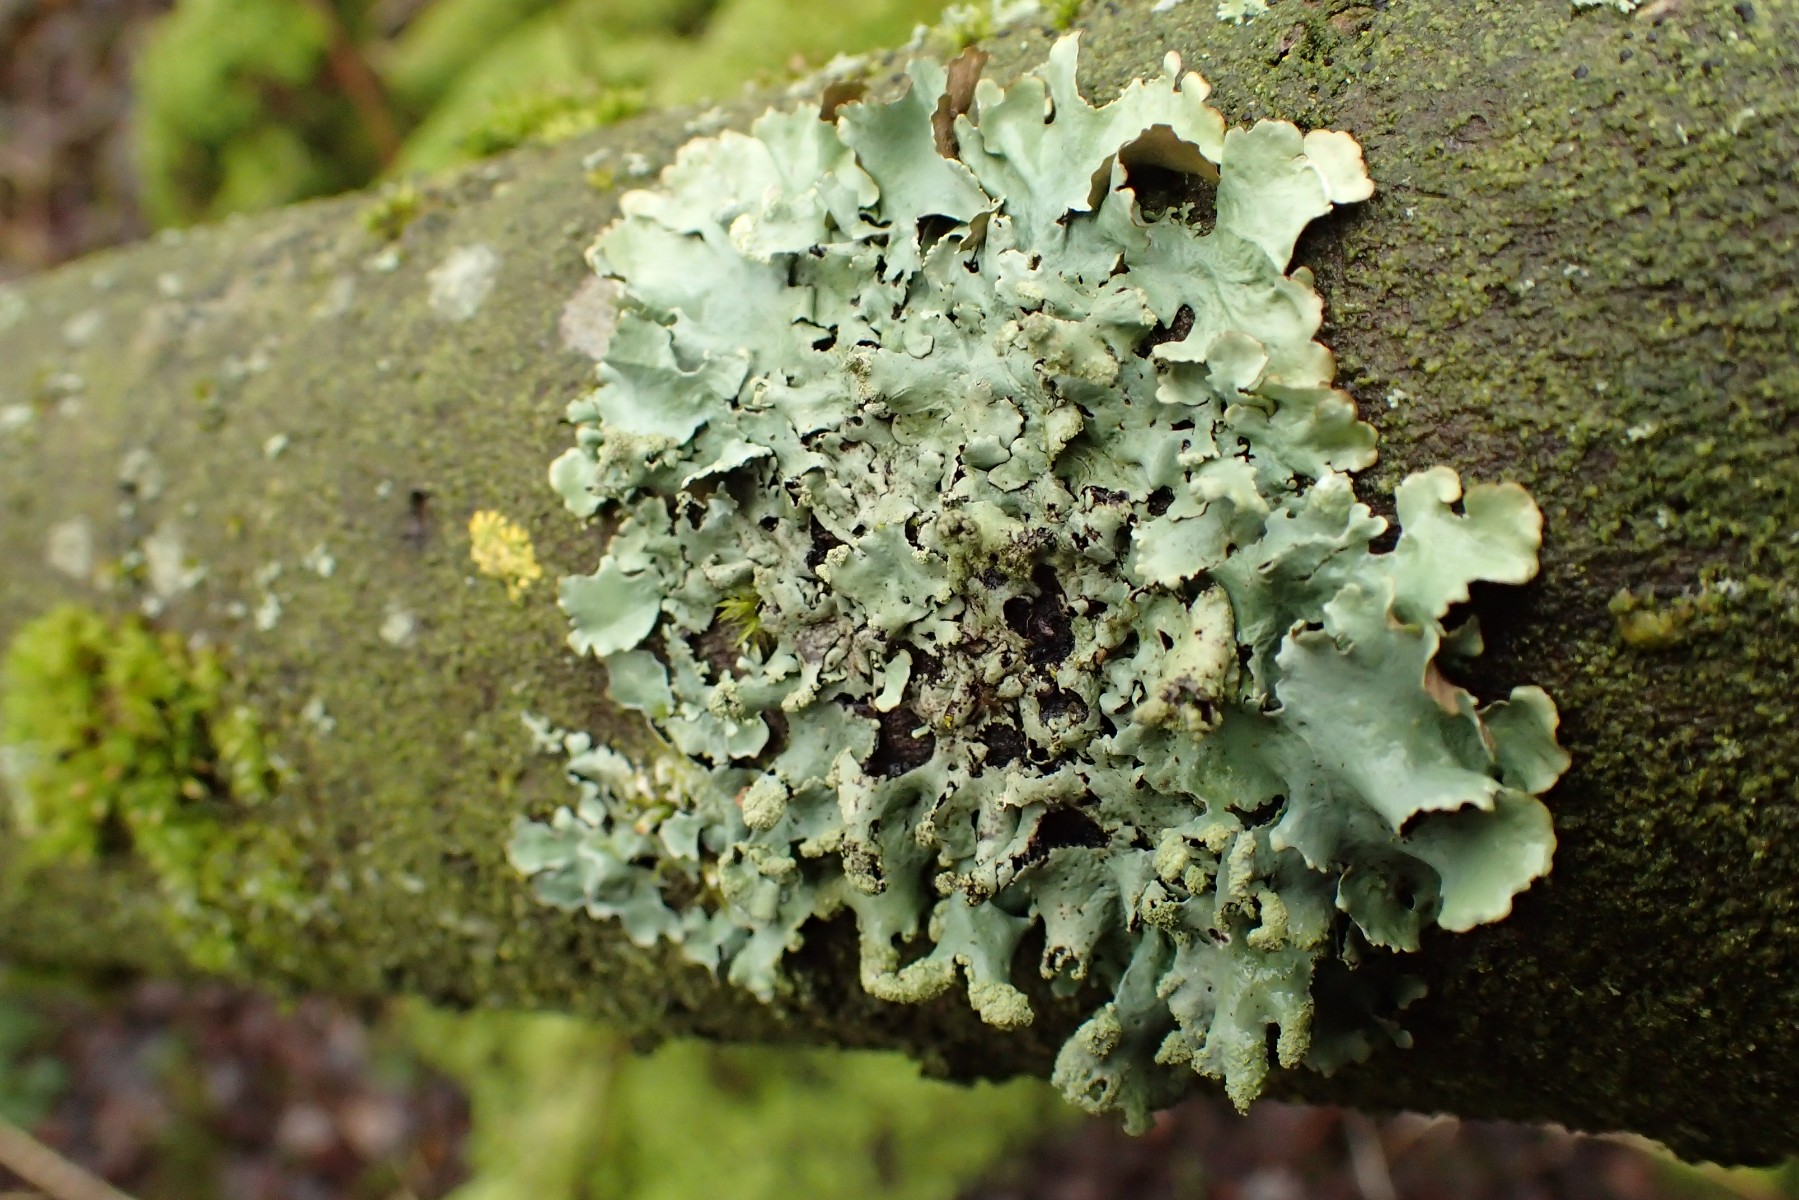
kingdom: Fungi
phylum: Ascomycota
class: Lecanoromycetes
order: Lecanorales
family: Parmeliaceae
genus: Hypotrachyna
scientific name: Hypotrachyna revoluta
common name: bleggrå skållav
